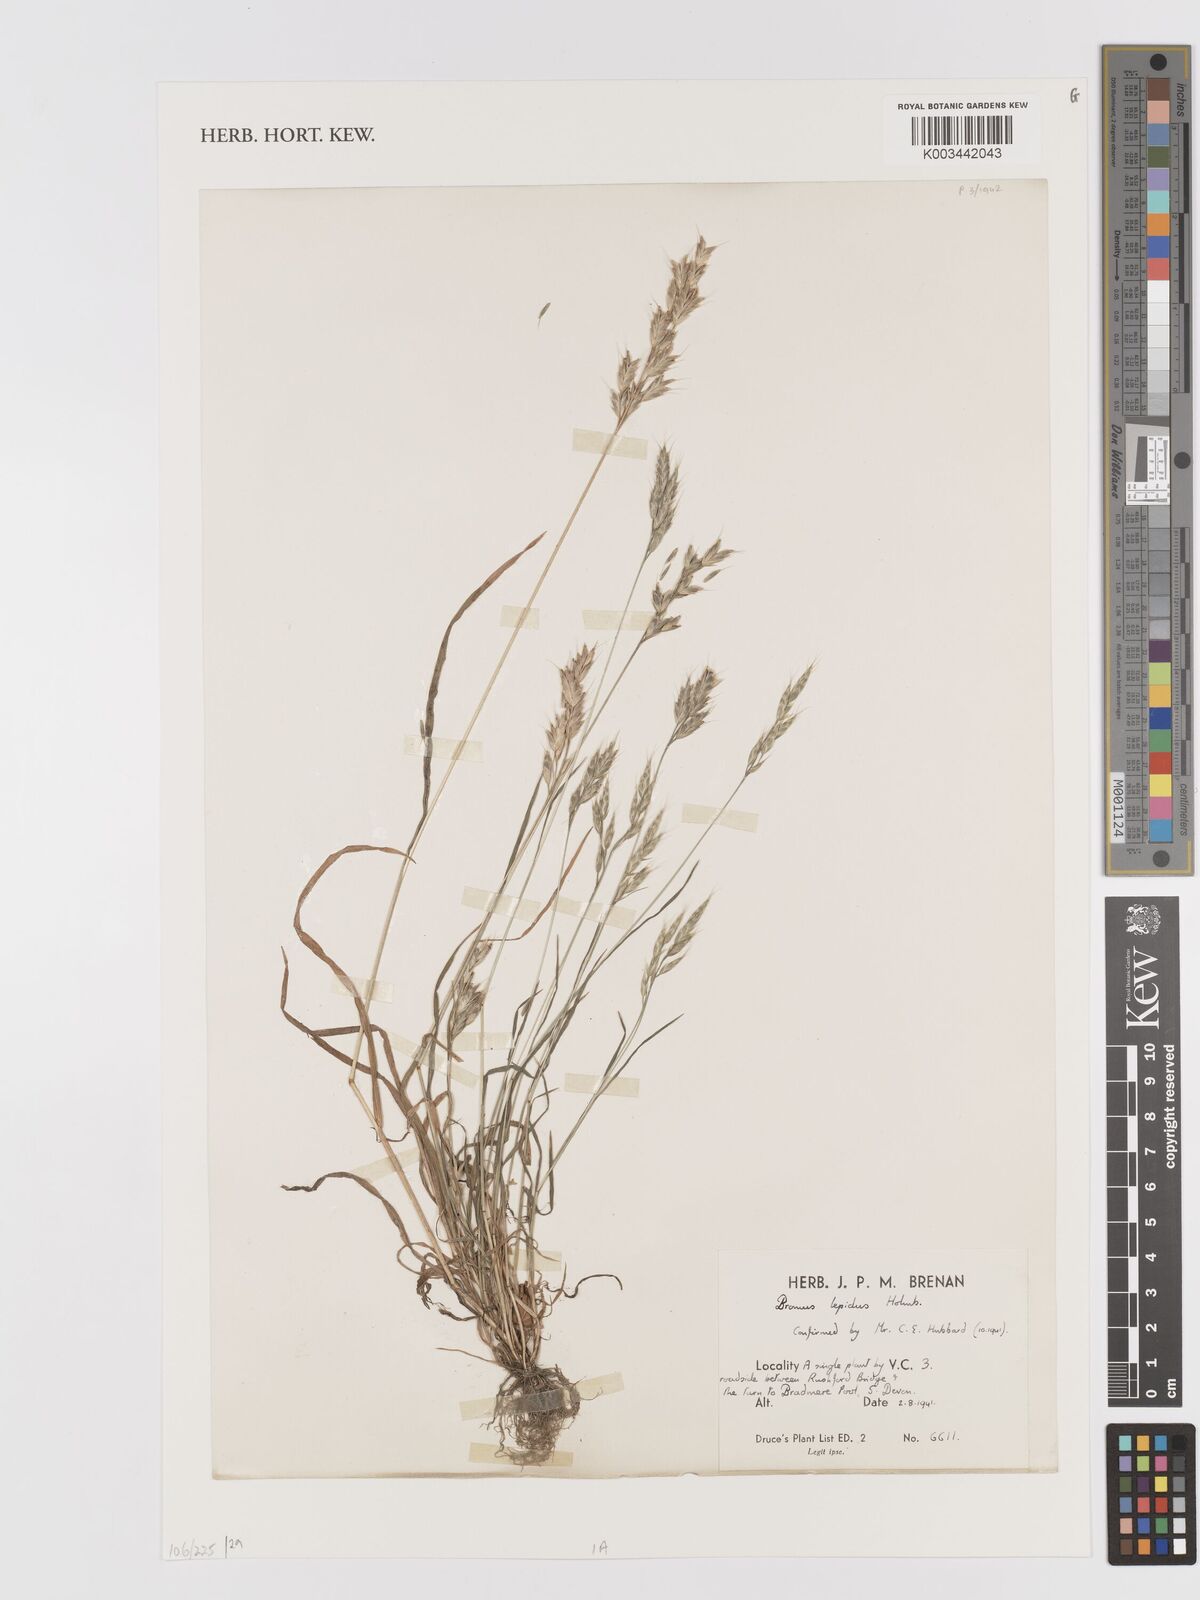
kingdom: Plantae
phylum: Tracheophyta
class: Liliopsida
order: Poales
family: Poaceae
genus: Bromus
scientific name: Bromus lepidus
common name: Slender soft-brome
